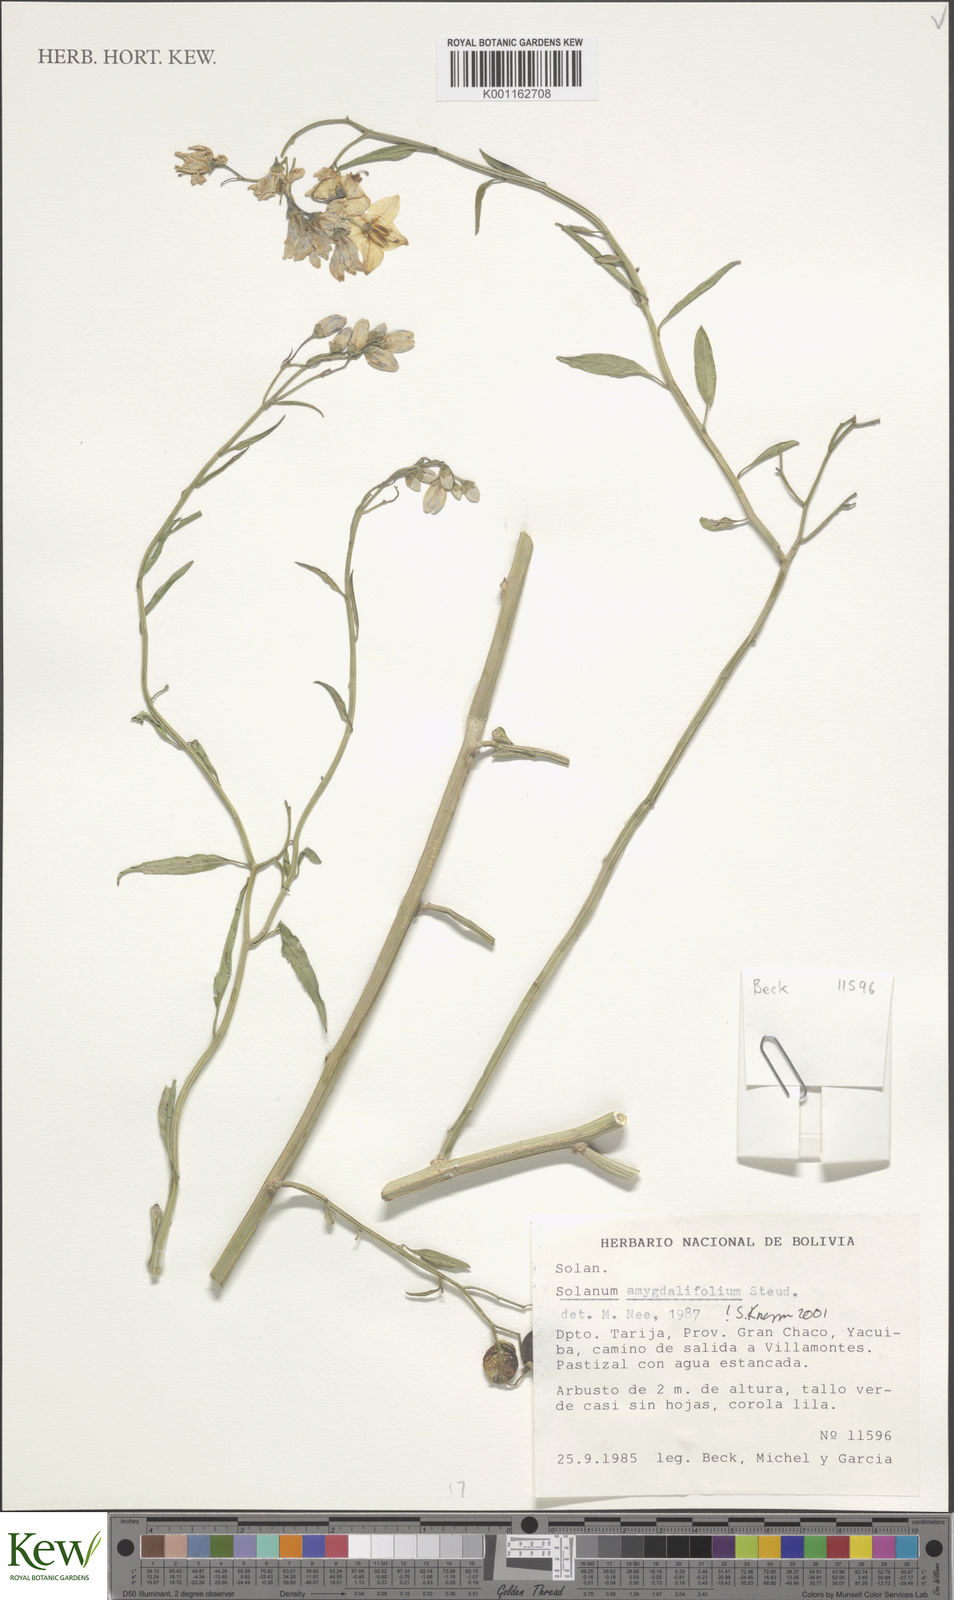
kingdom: Plantae
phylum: Tracheophyta
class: Magnoliopsida
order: Solanales
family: Solanaceae
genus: Solanum
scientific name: Solanum amygdalifolium
